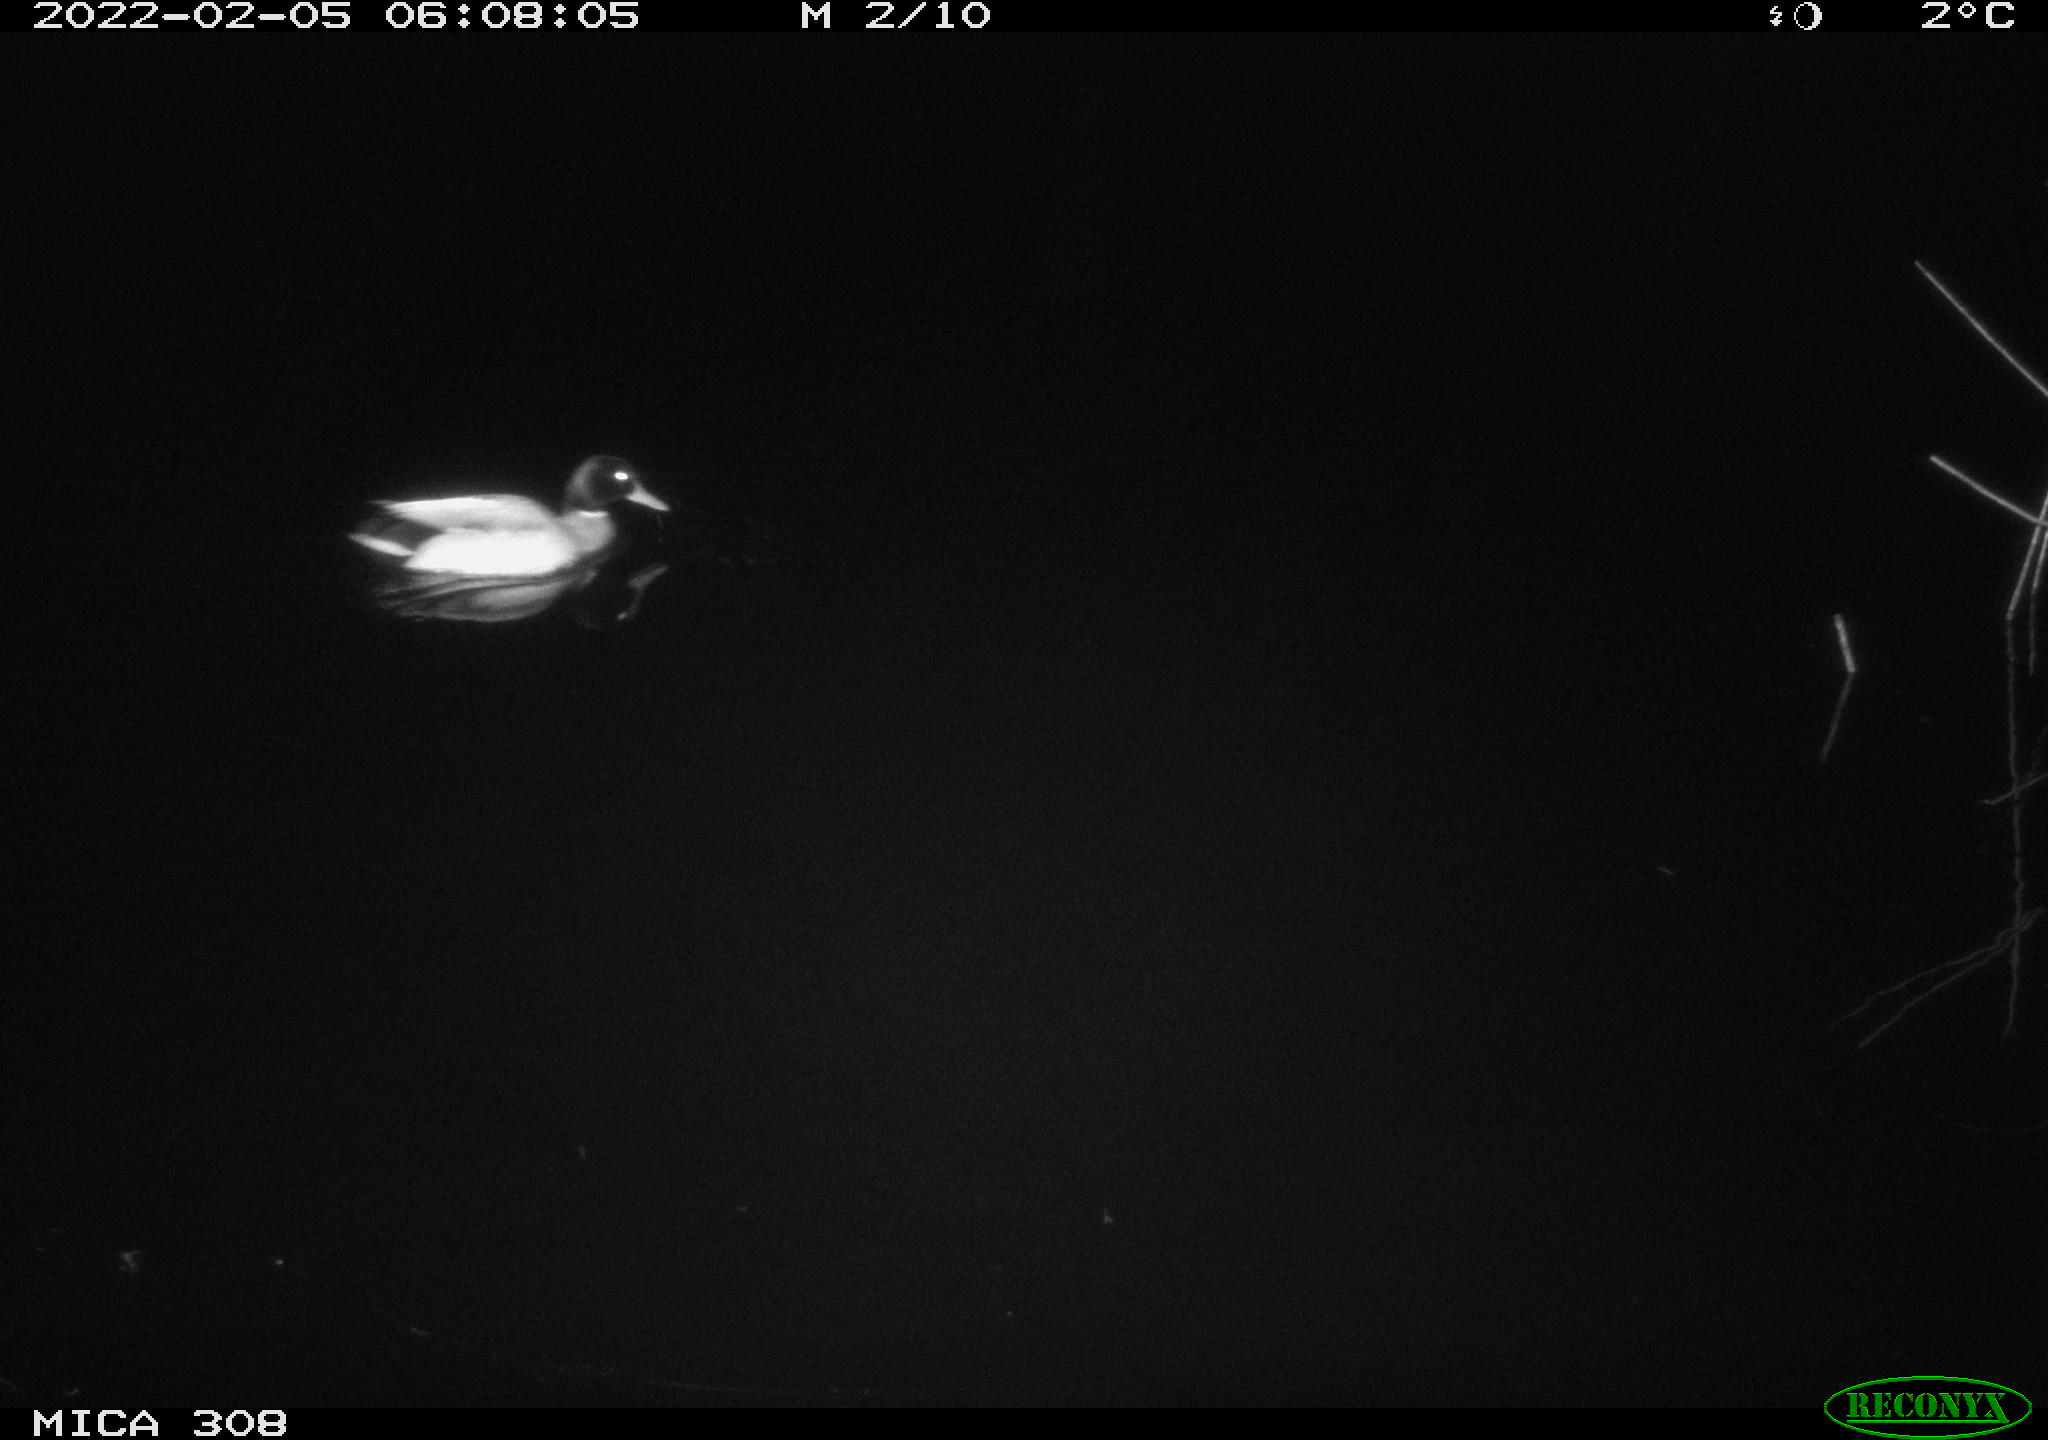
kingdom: Animalia
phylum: Chordata
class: Aves
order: Anseriformes
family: Anatidae
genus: Anas
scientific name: Anas platyrhynchos
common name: Mallard
